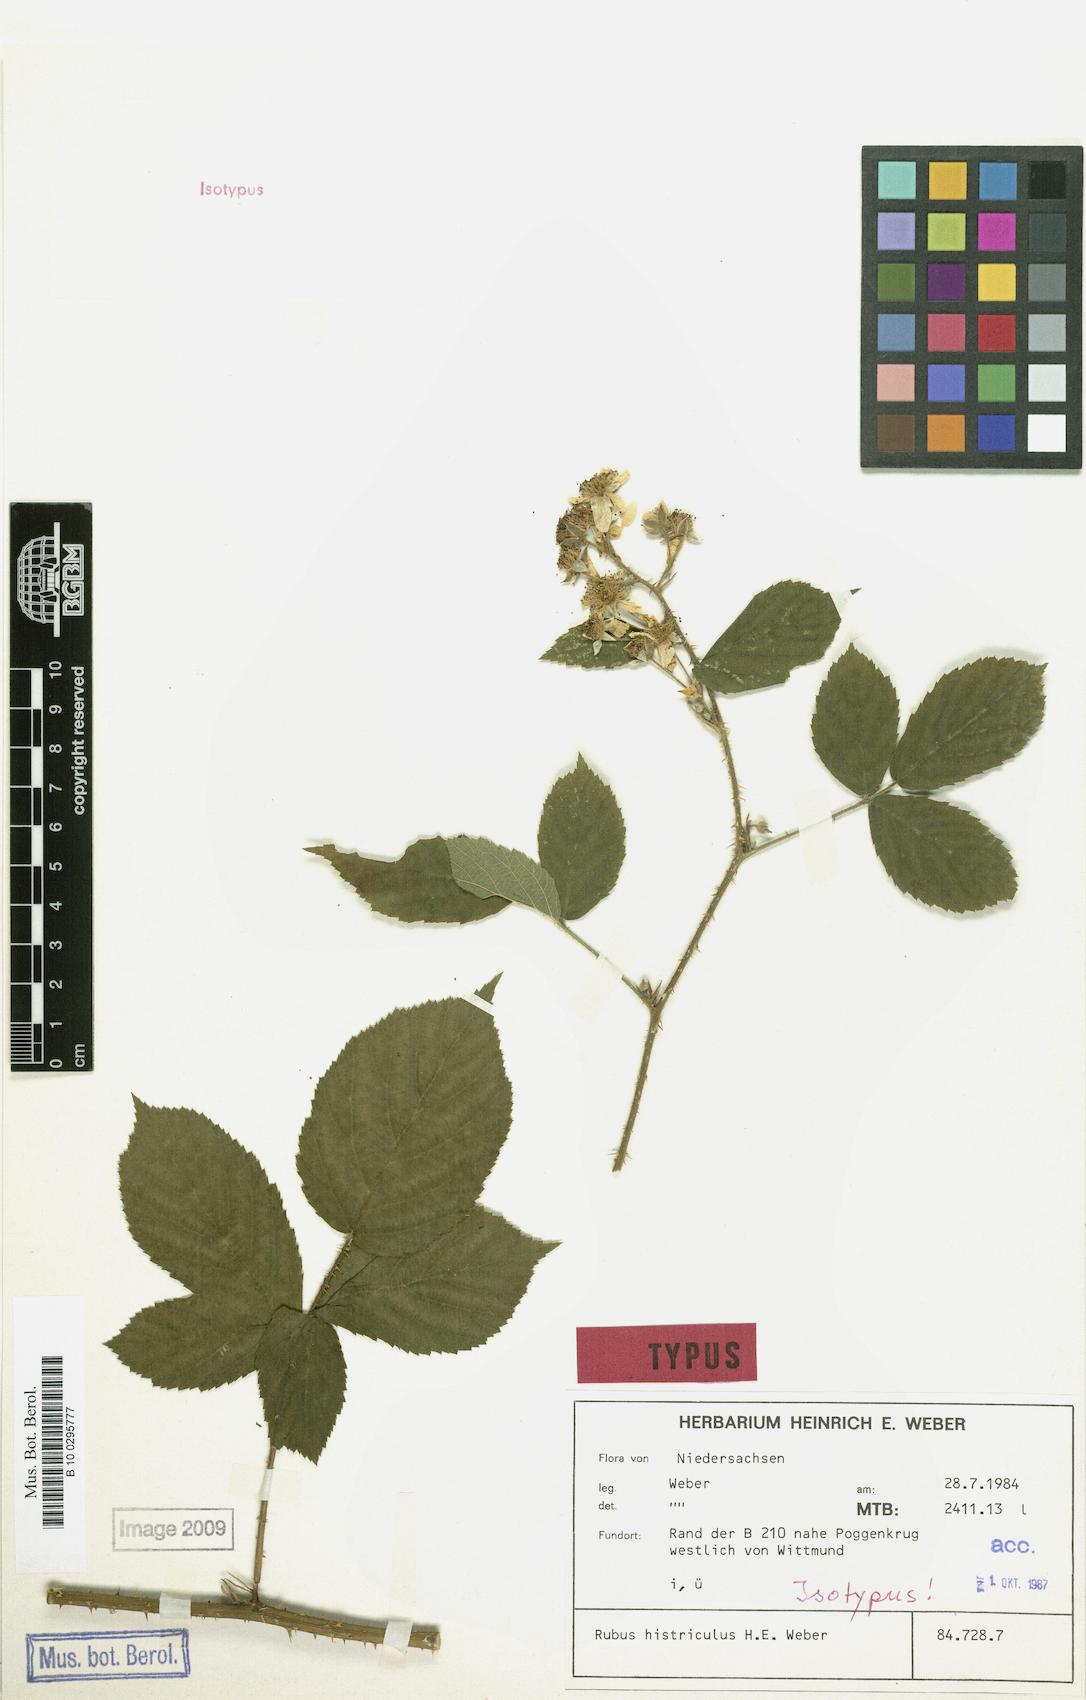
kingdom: Plantae
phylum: Tracheophyta
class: Magnoliopsida
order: Rosales
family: Rosaceae
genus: Rubus
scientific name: Rubus histriculus
